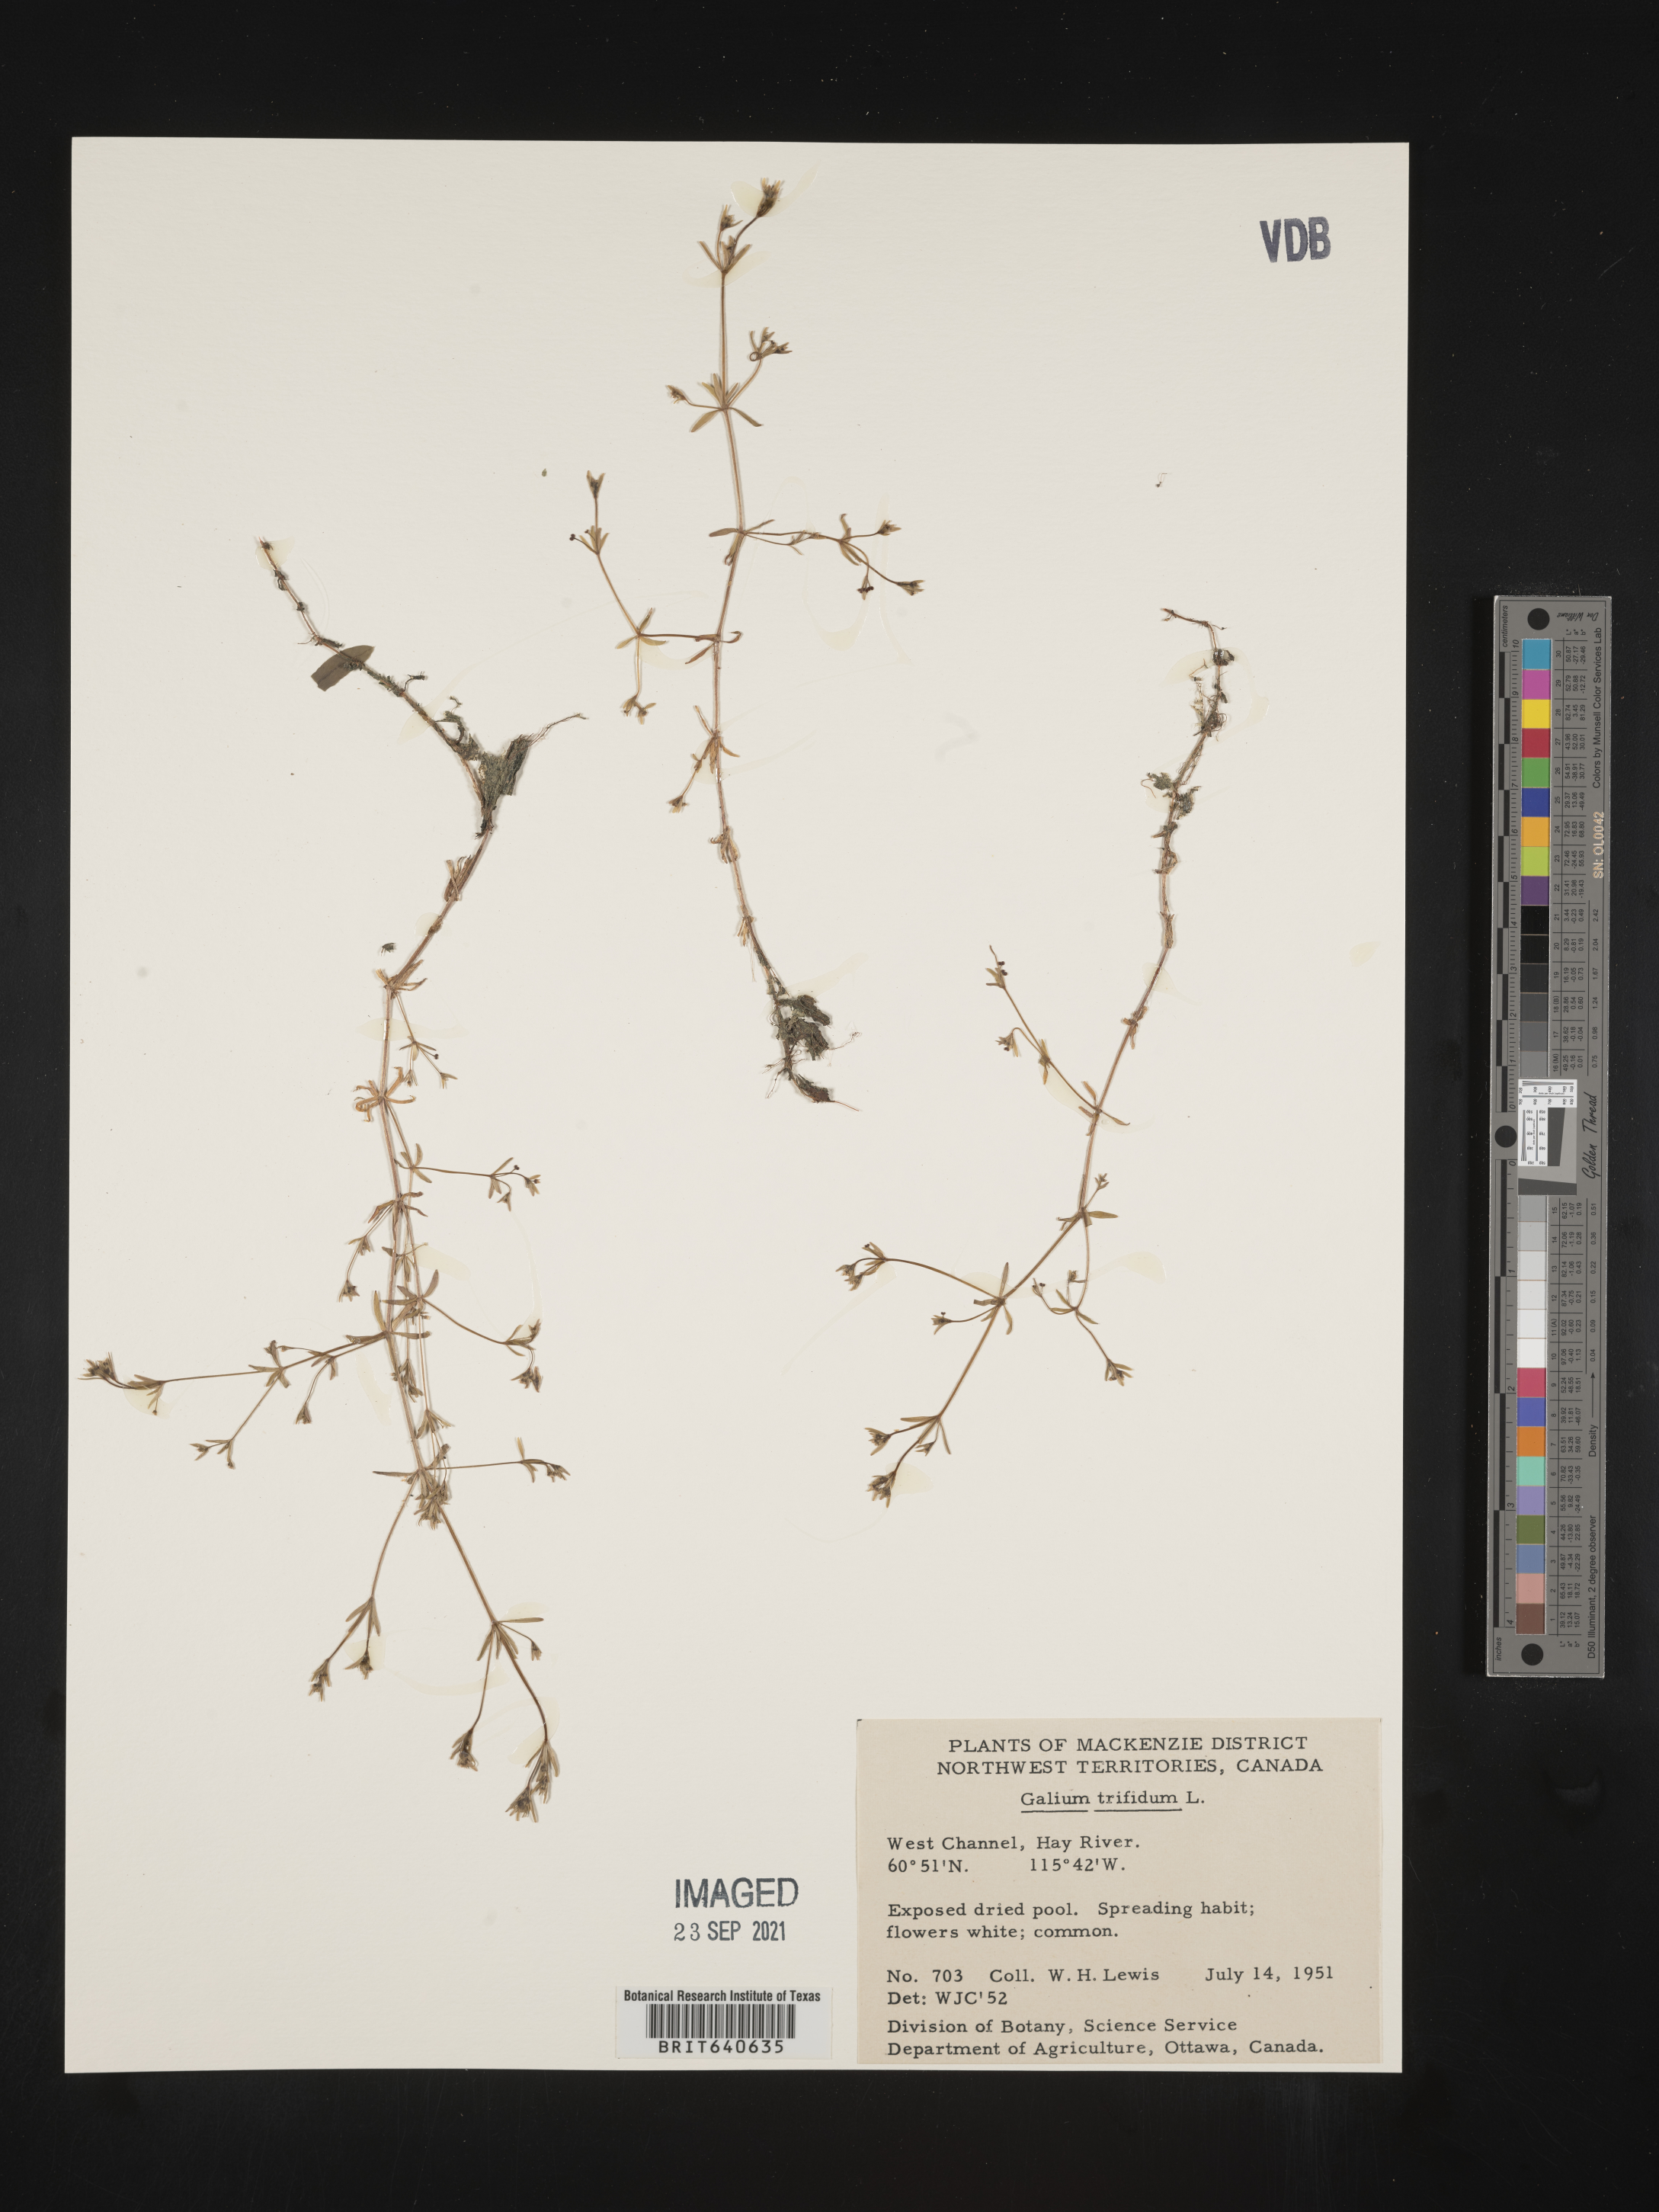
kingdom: Plantae
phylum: Tracheophyta
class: Magnoliopsida
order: Gentianales
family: Rubiaceae
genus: Galium
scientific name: Galium
